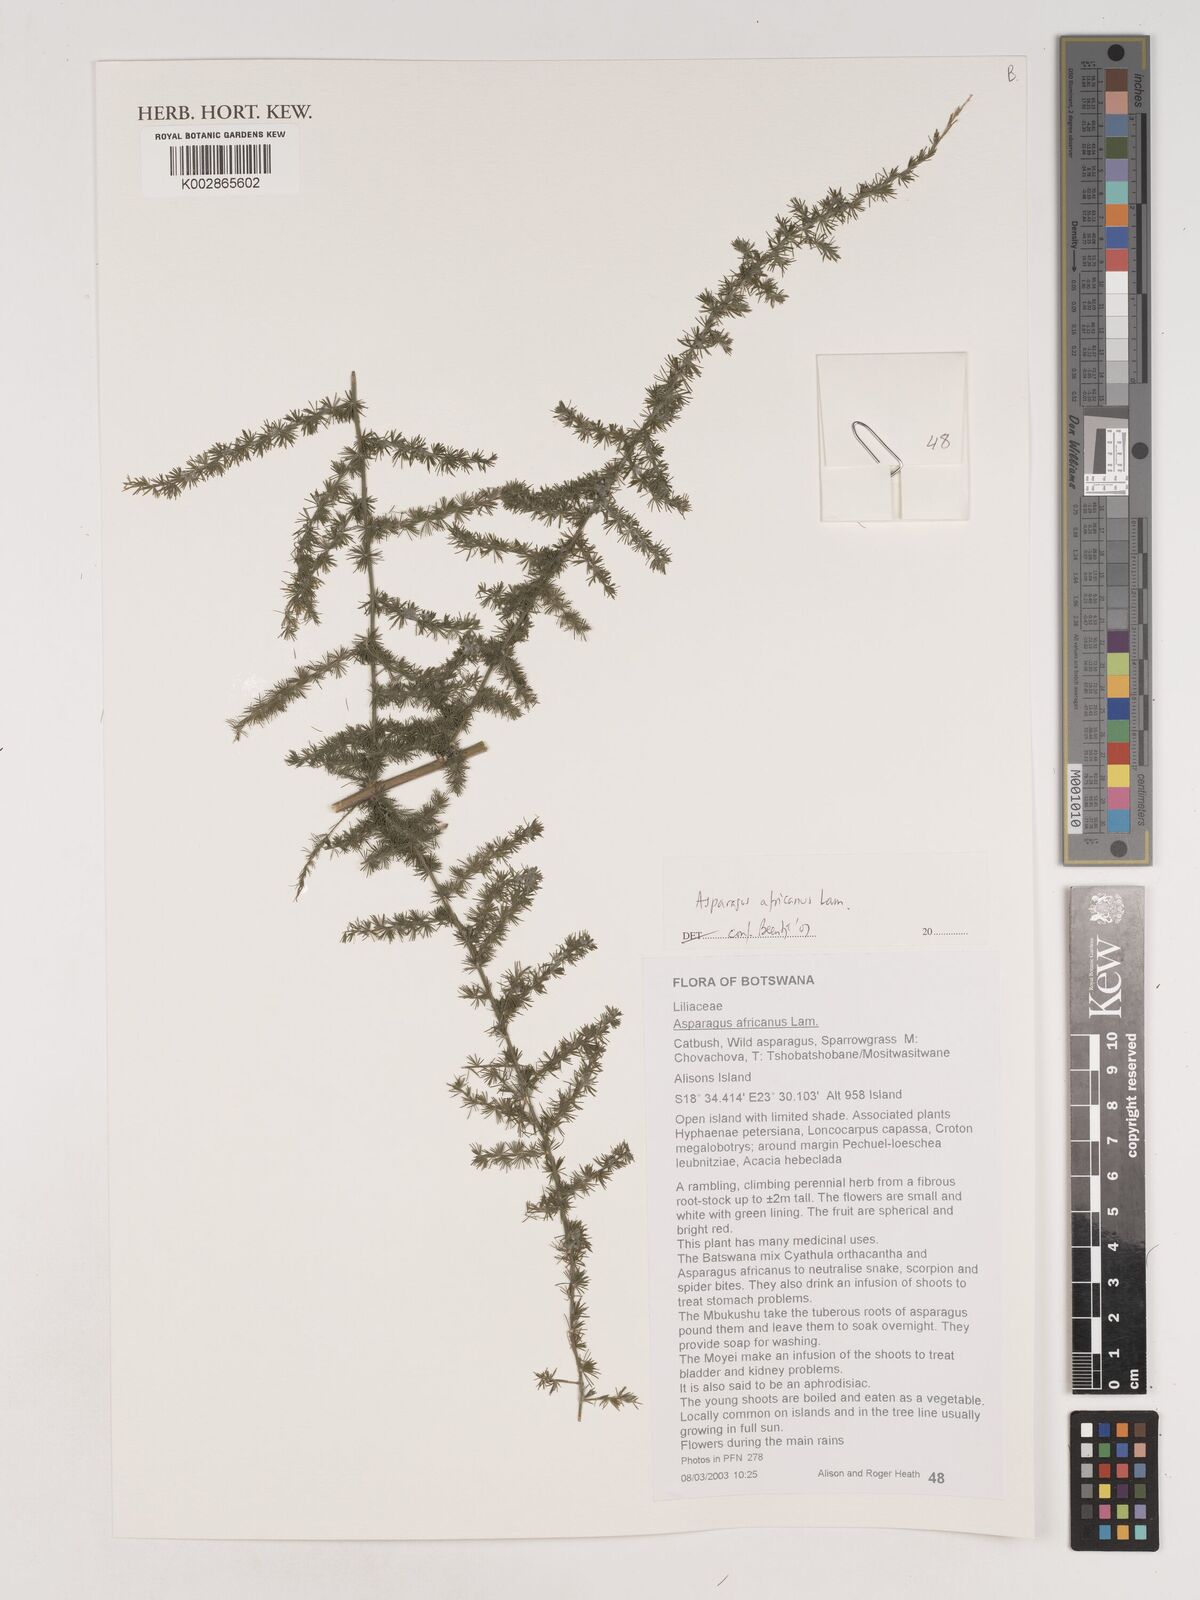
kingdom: Plantae
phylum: Tracheophyta
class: Liliopsida
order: Asparagales
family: Asparagaceae
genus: Asparagus
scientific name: Asparagus africanus
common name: Asparagus-fern
